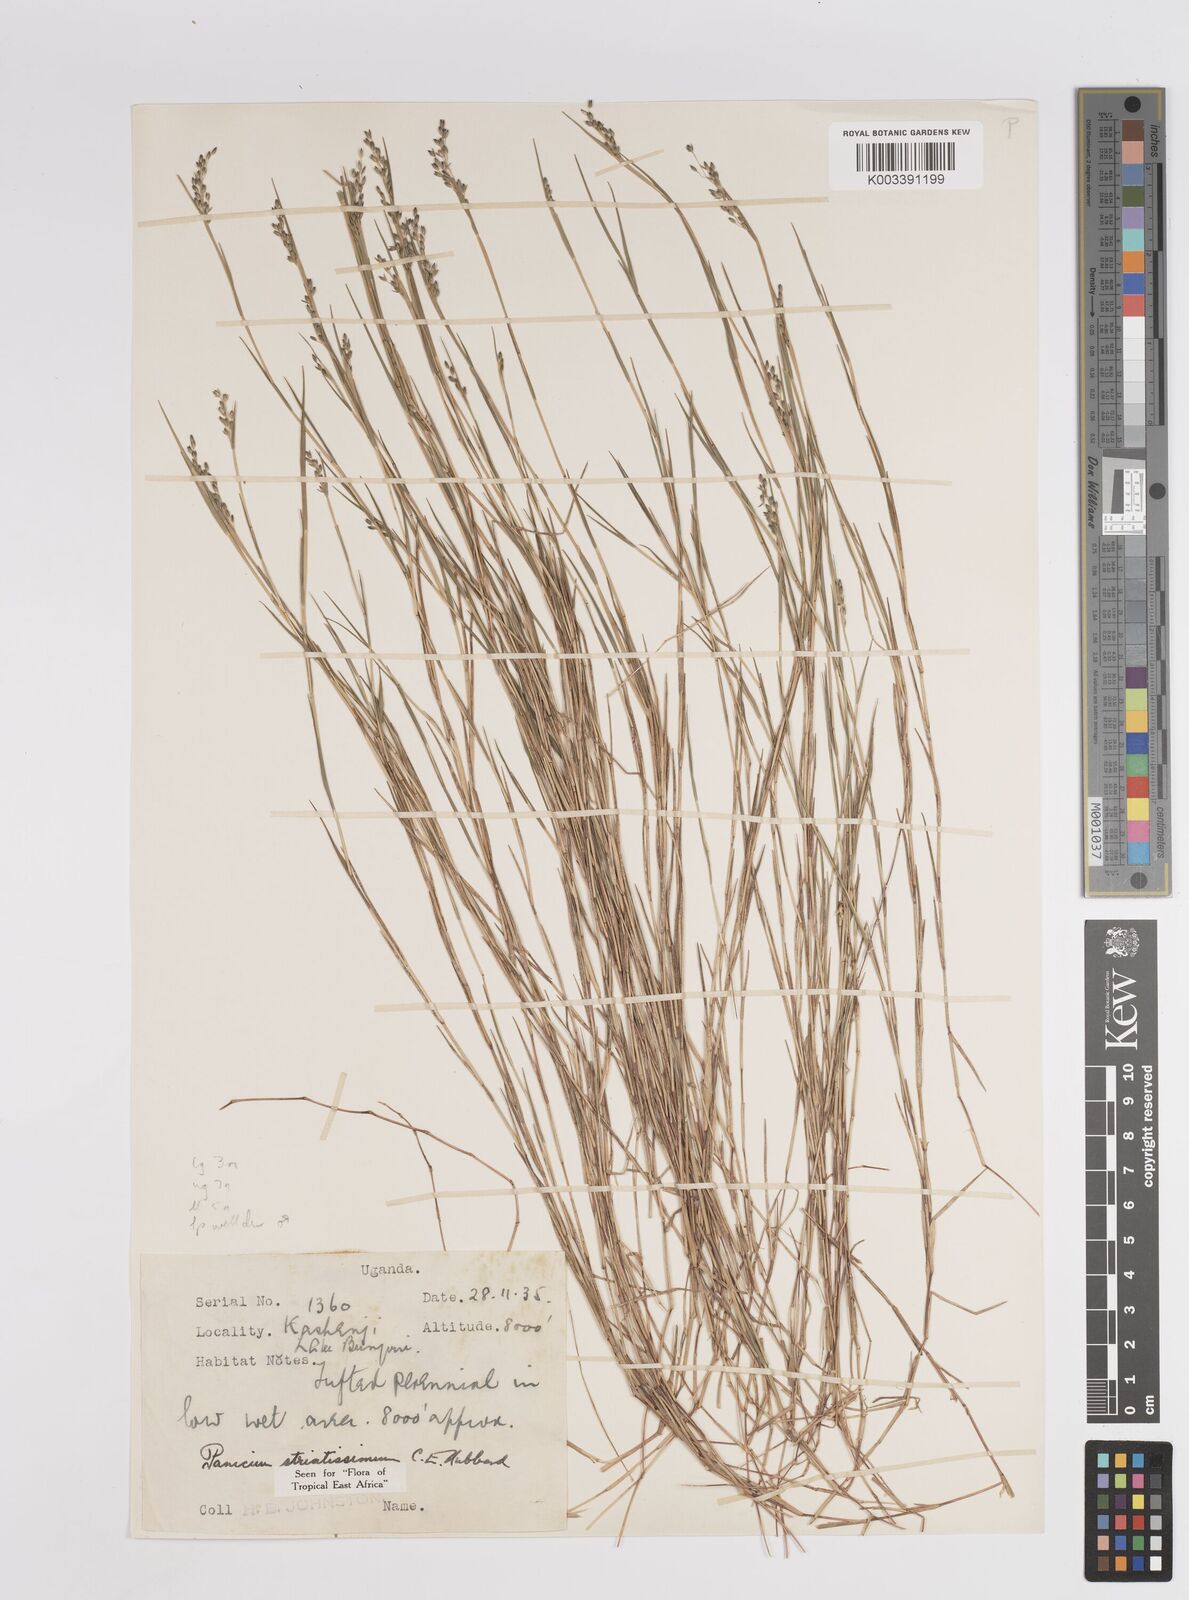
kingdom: Plantae
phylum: Tracheophyta
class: Liliopsida
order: Poales
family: Poaceae
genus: Panicum
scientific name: Panicum eickii
